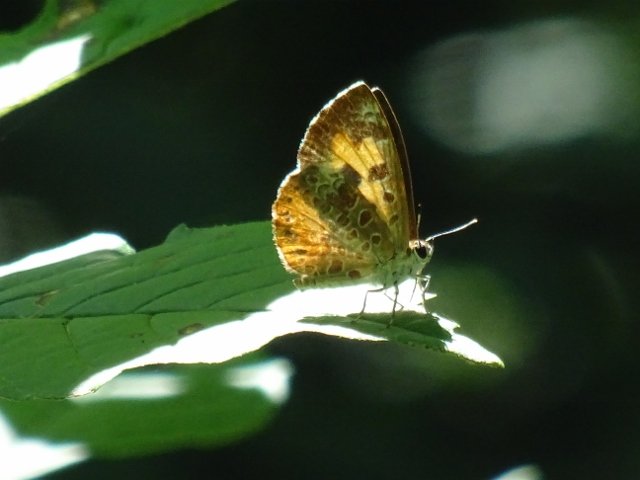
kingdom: Animalia
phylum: Arthropoda
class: Insecta
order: Lepidoptera
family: Lycaenidae
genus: Feniseca
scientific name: Feniseca tarquinius
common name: Harvester
